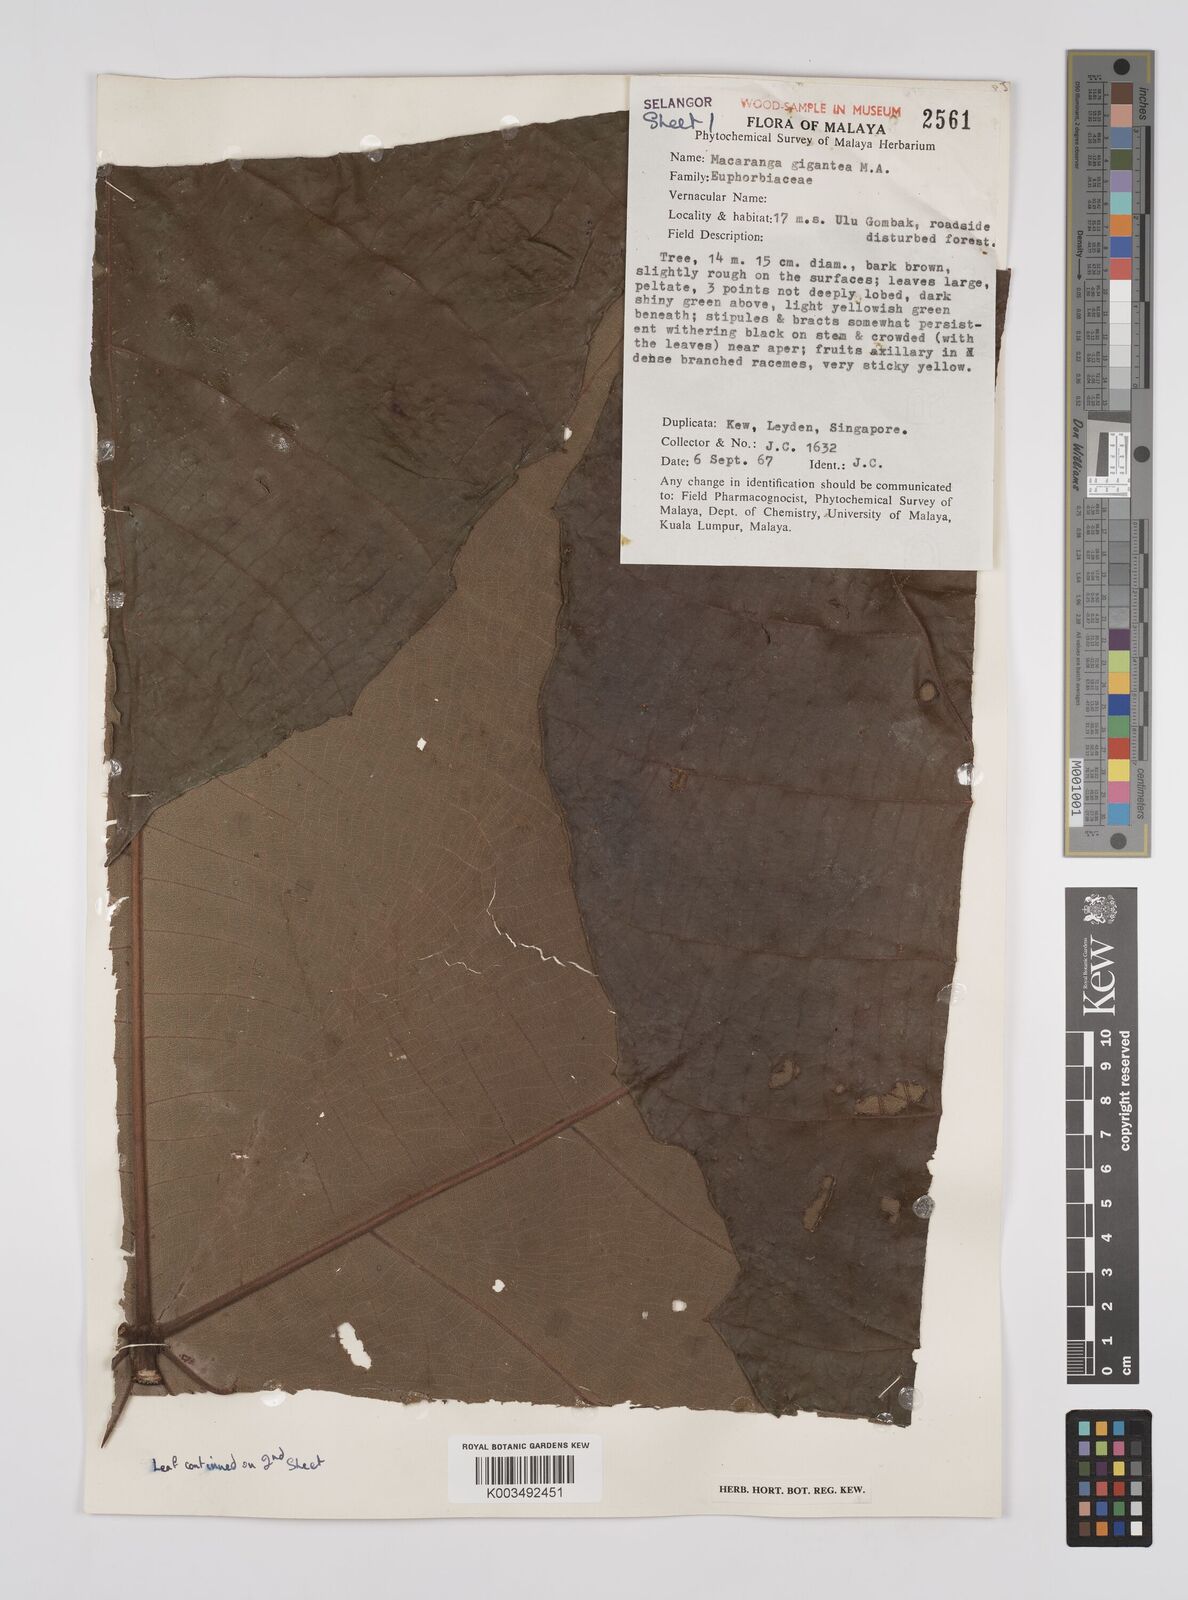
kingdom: Plantae
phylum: Tracheophyta
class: Magnoliopsida
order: Malpighiales
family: Euphorbiaceae
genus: Macaranga
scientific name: Macaranga gigantea
